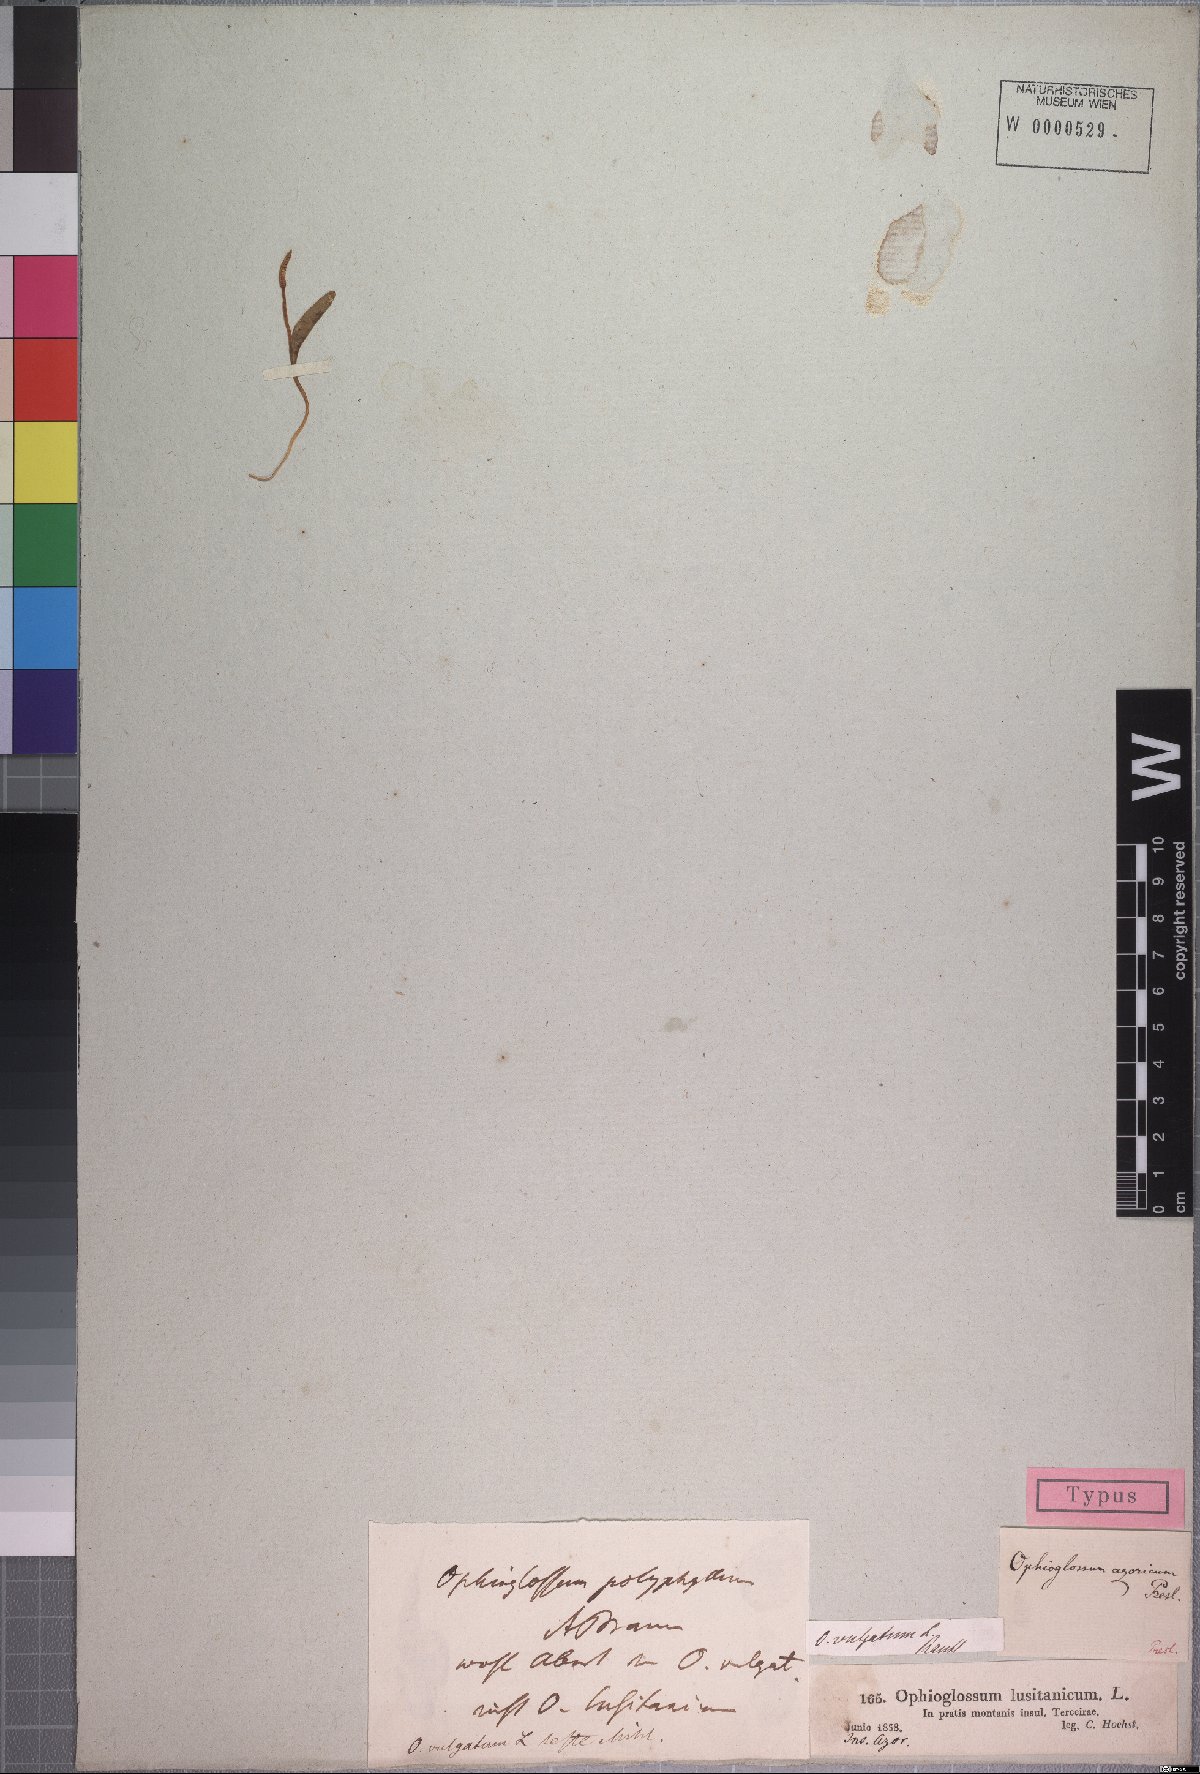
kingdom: Plantae
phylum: Tracheophyta
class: Polypodiopsida
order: Ophioglossales
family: Ophioglossaceae
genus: Ophioglossum
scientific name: Ophioglossum azoricum
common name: Small adder's-tongue
